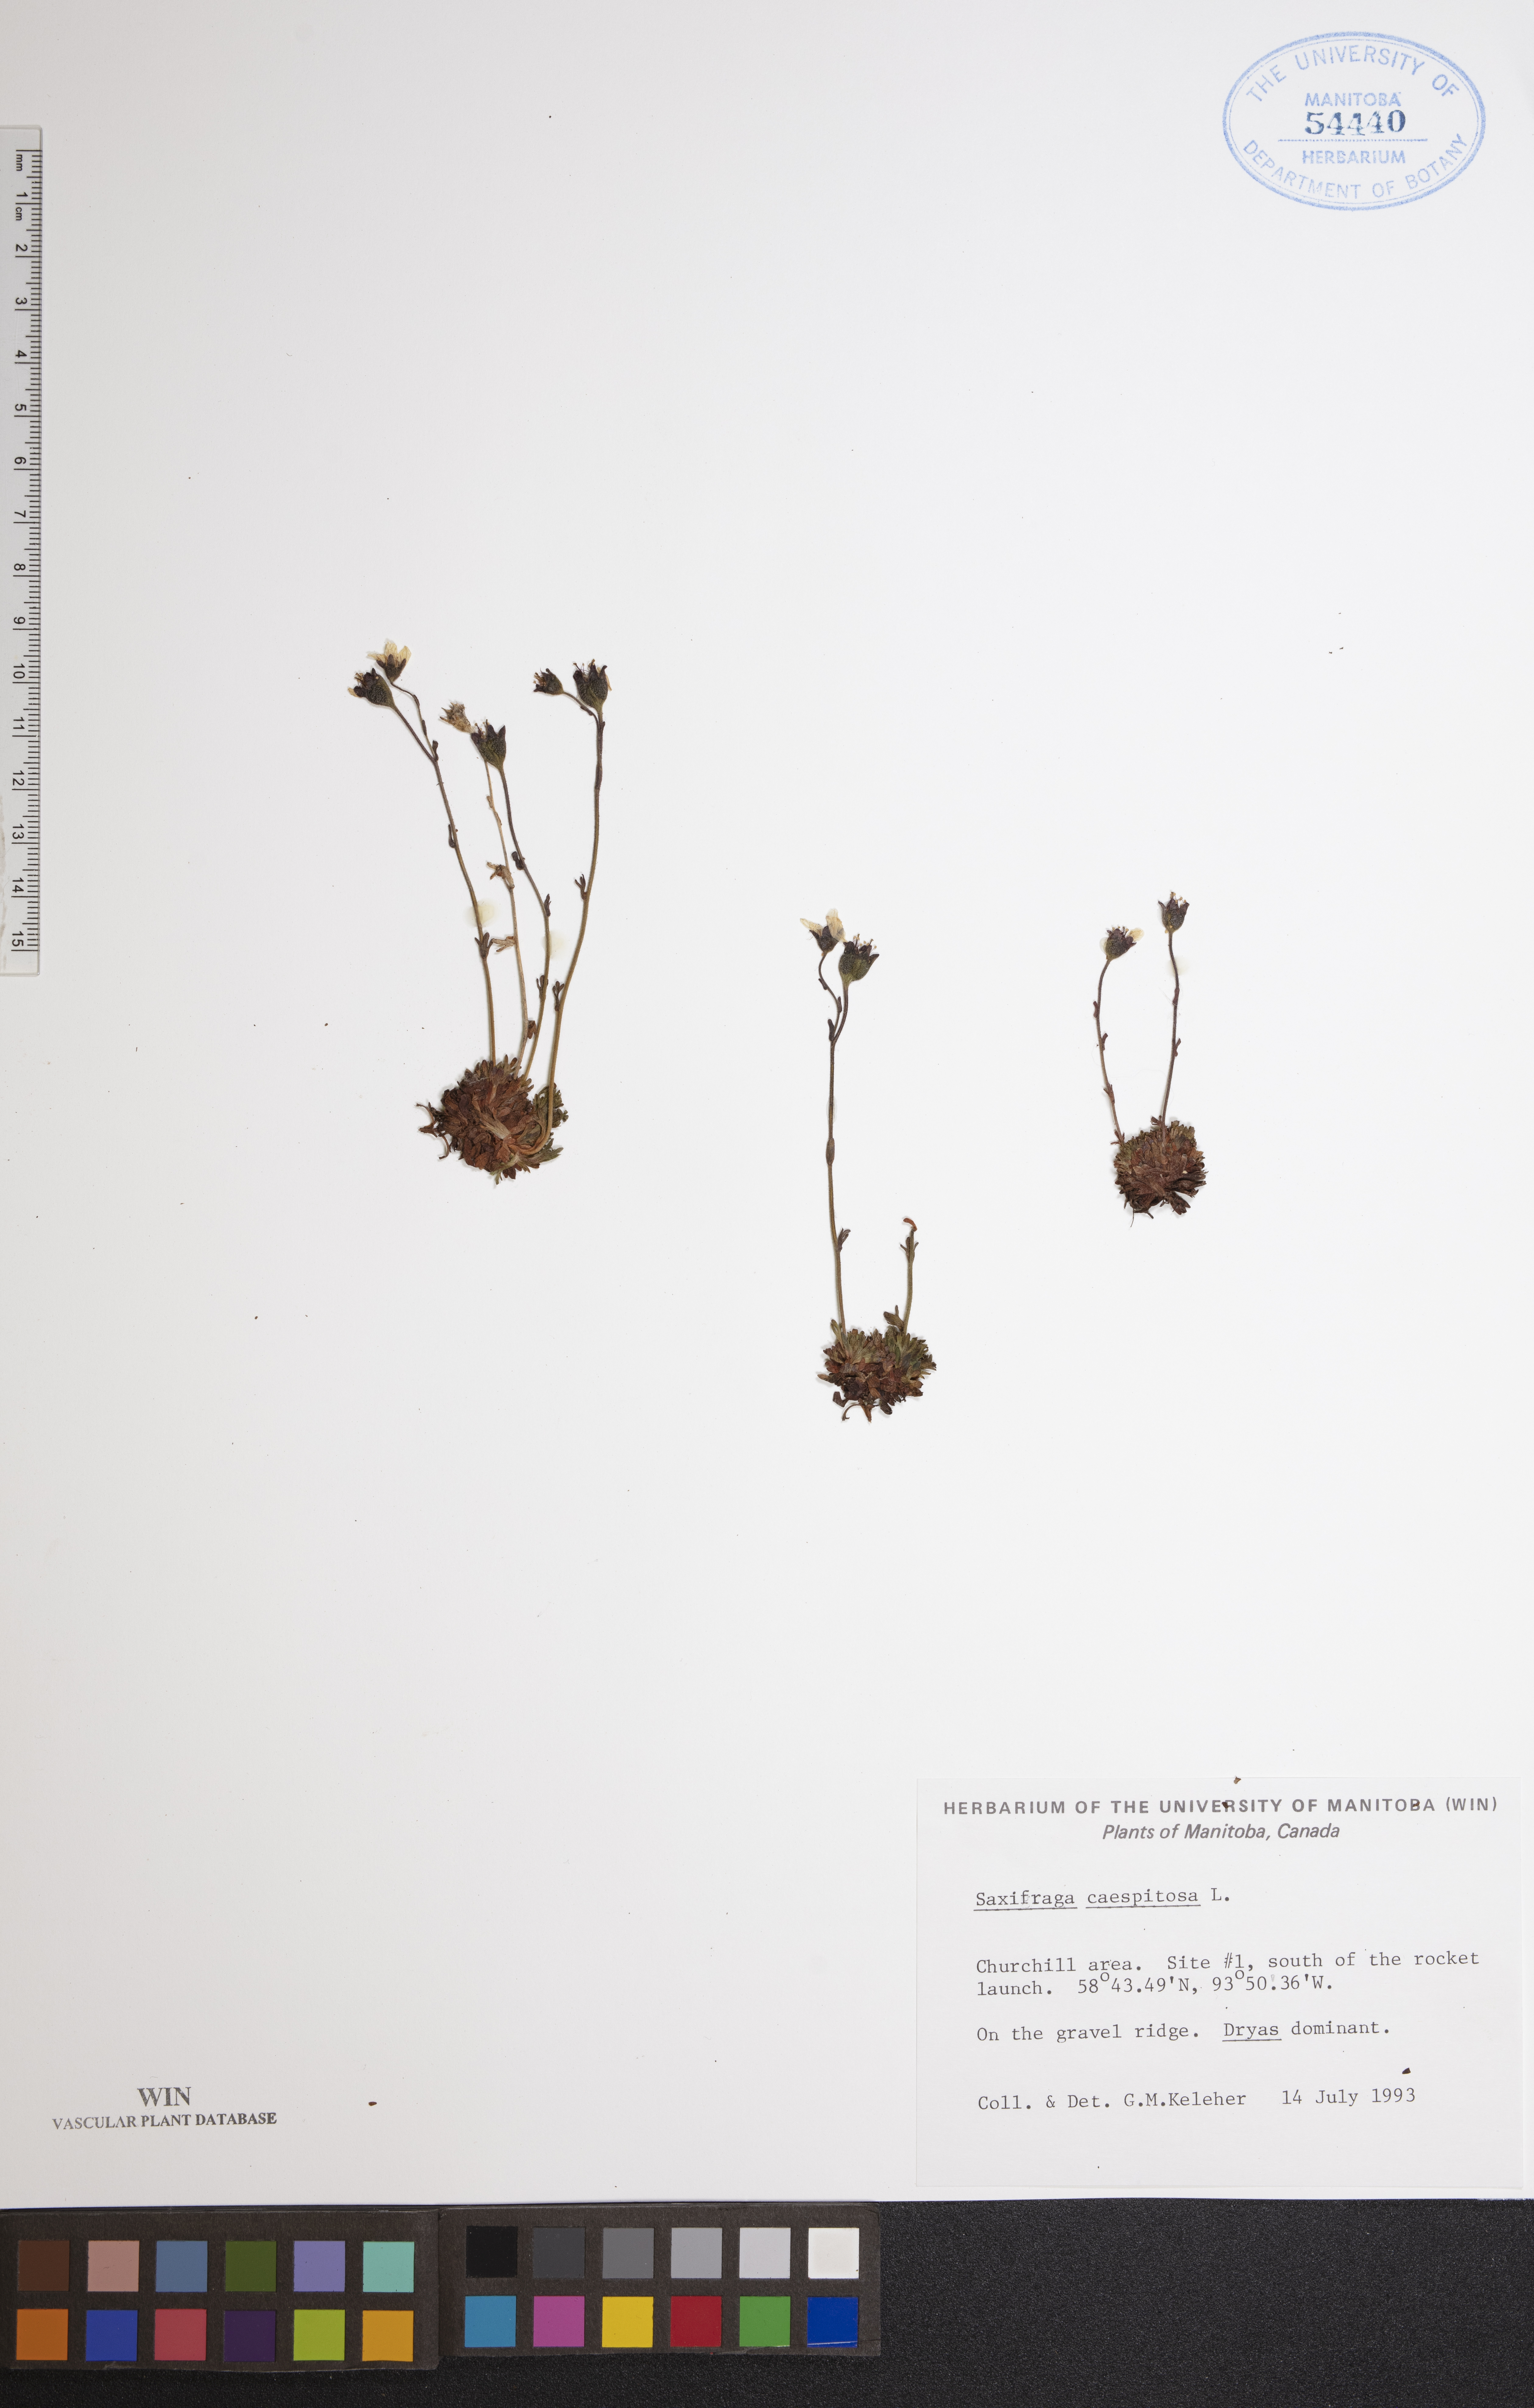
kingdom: Plantae
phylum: Tracheophyta
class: Magnoliopsida
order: Saxifragales
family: Saxifragaceae
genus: Saxifraga
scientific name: Saxifraga cespitosa
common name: Tufted saxifrage
